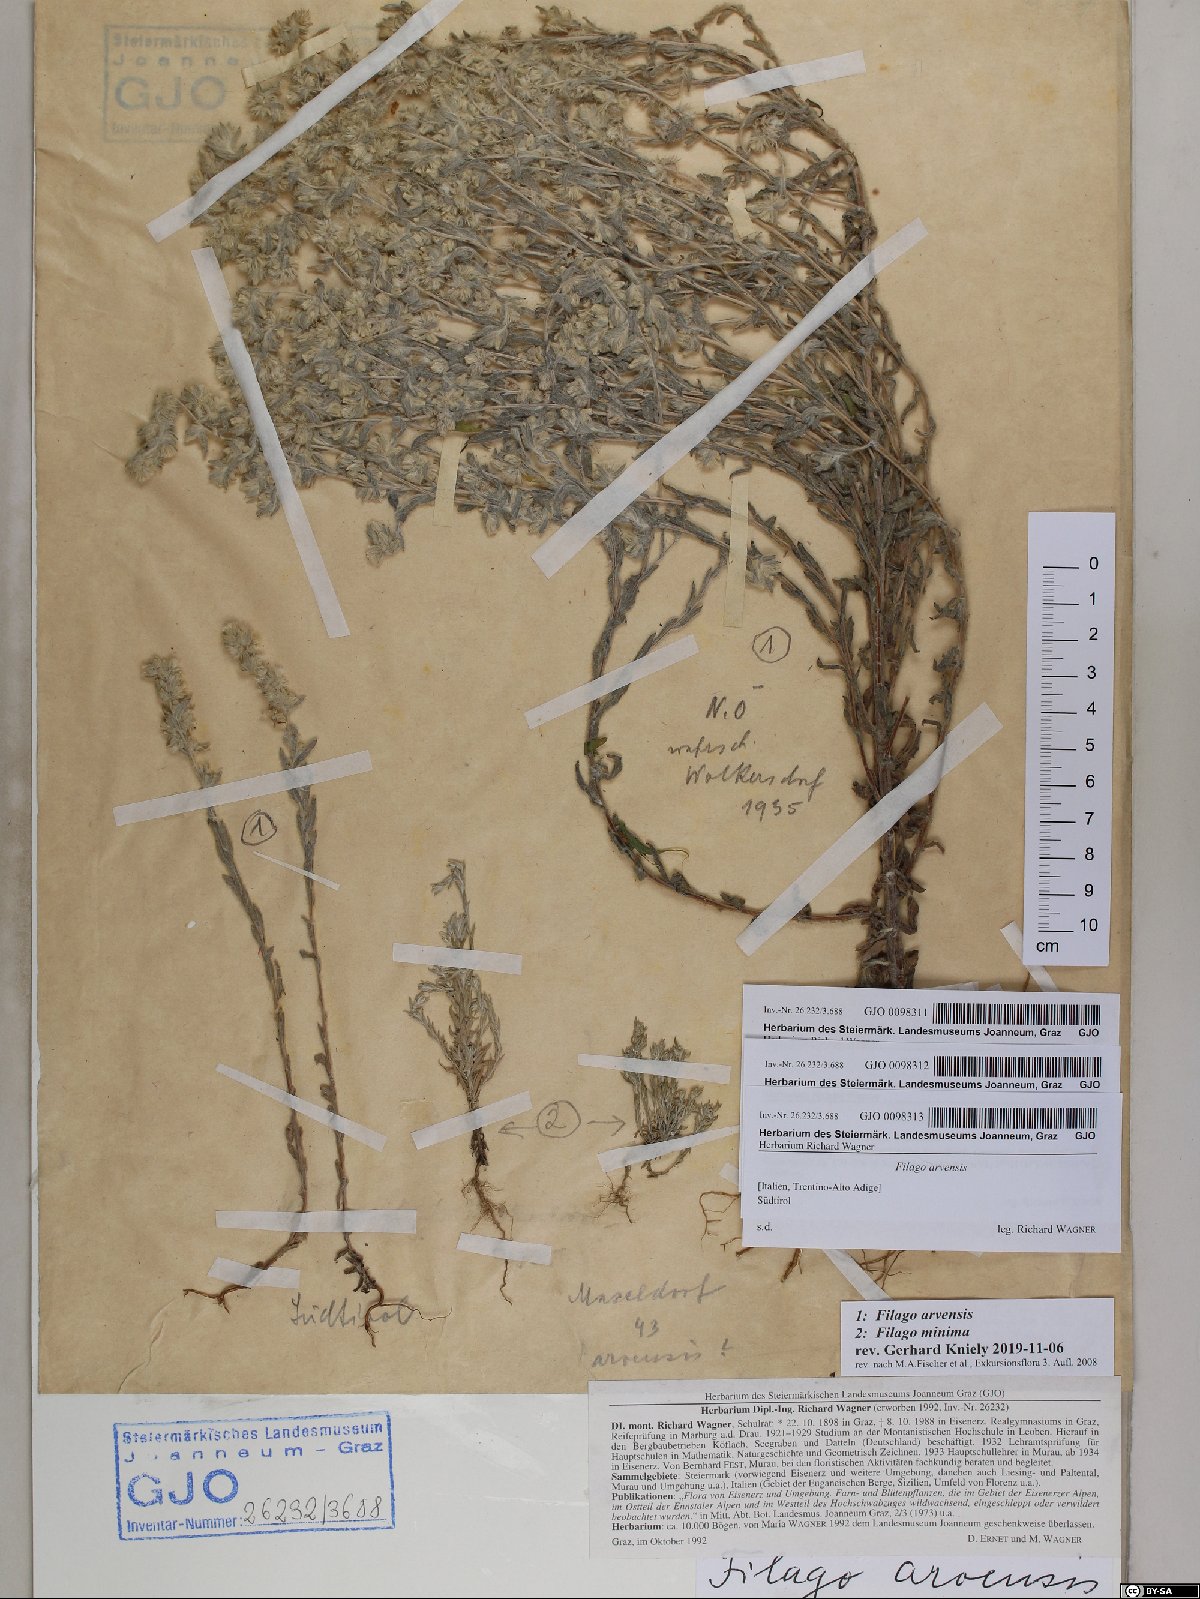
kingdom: Plantae
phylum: Tracheophyta
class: Magnoliopsida
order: Asterales
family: Asteraceae
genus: Filago
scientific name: Filago arvensis
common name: Field cudweed
